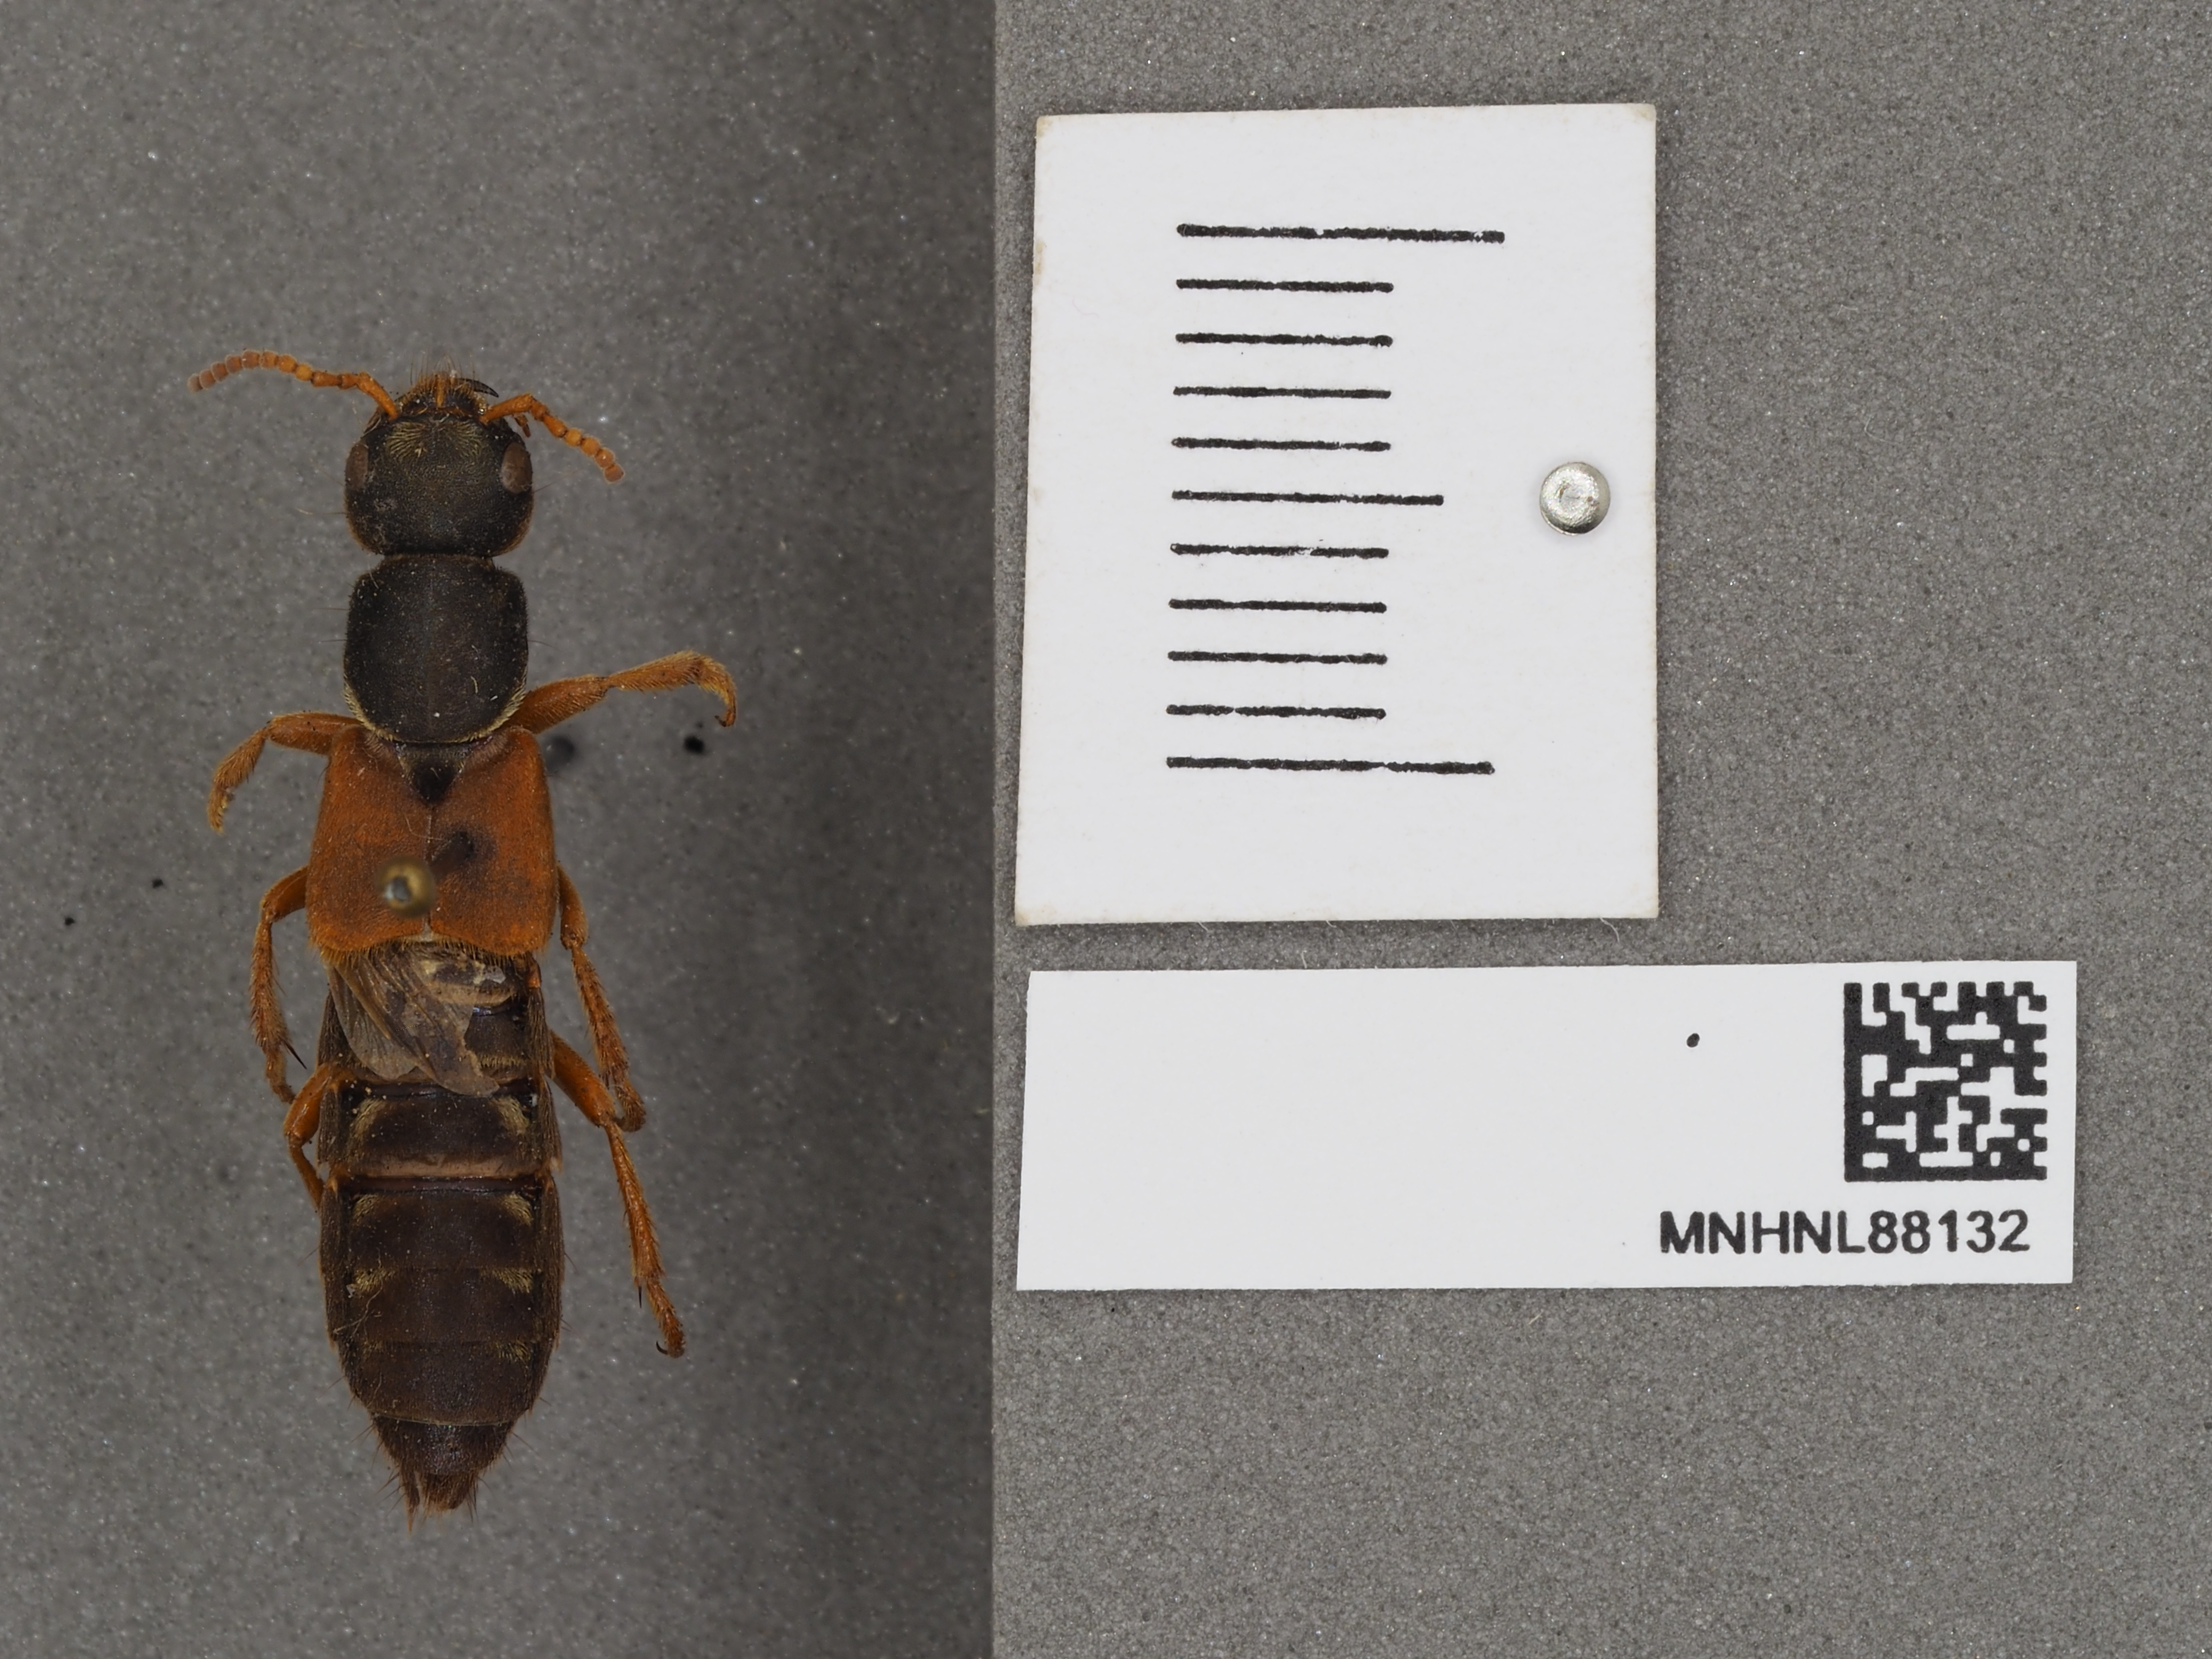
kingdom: Animalia
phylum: Arthropoda
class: Insecta
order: Coleoptera
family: Staphylinidae
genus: Staphylinus
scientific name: Staphylinus caesareus
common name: Staph beetle
